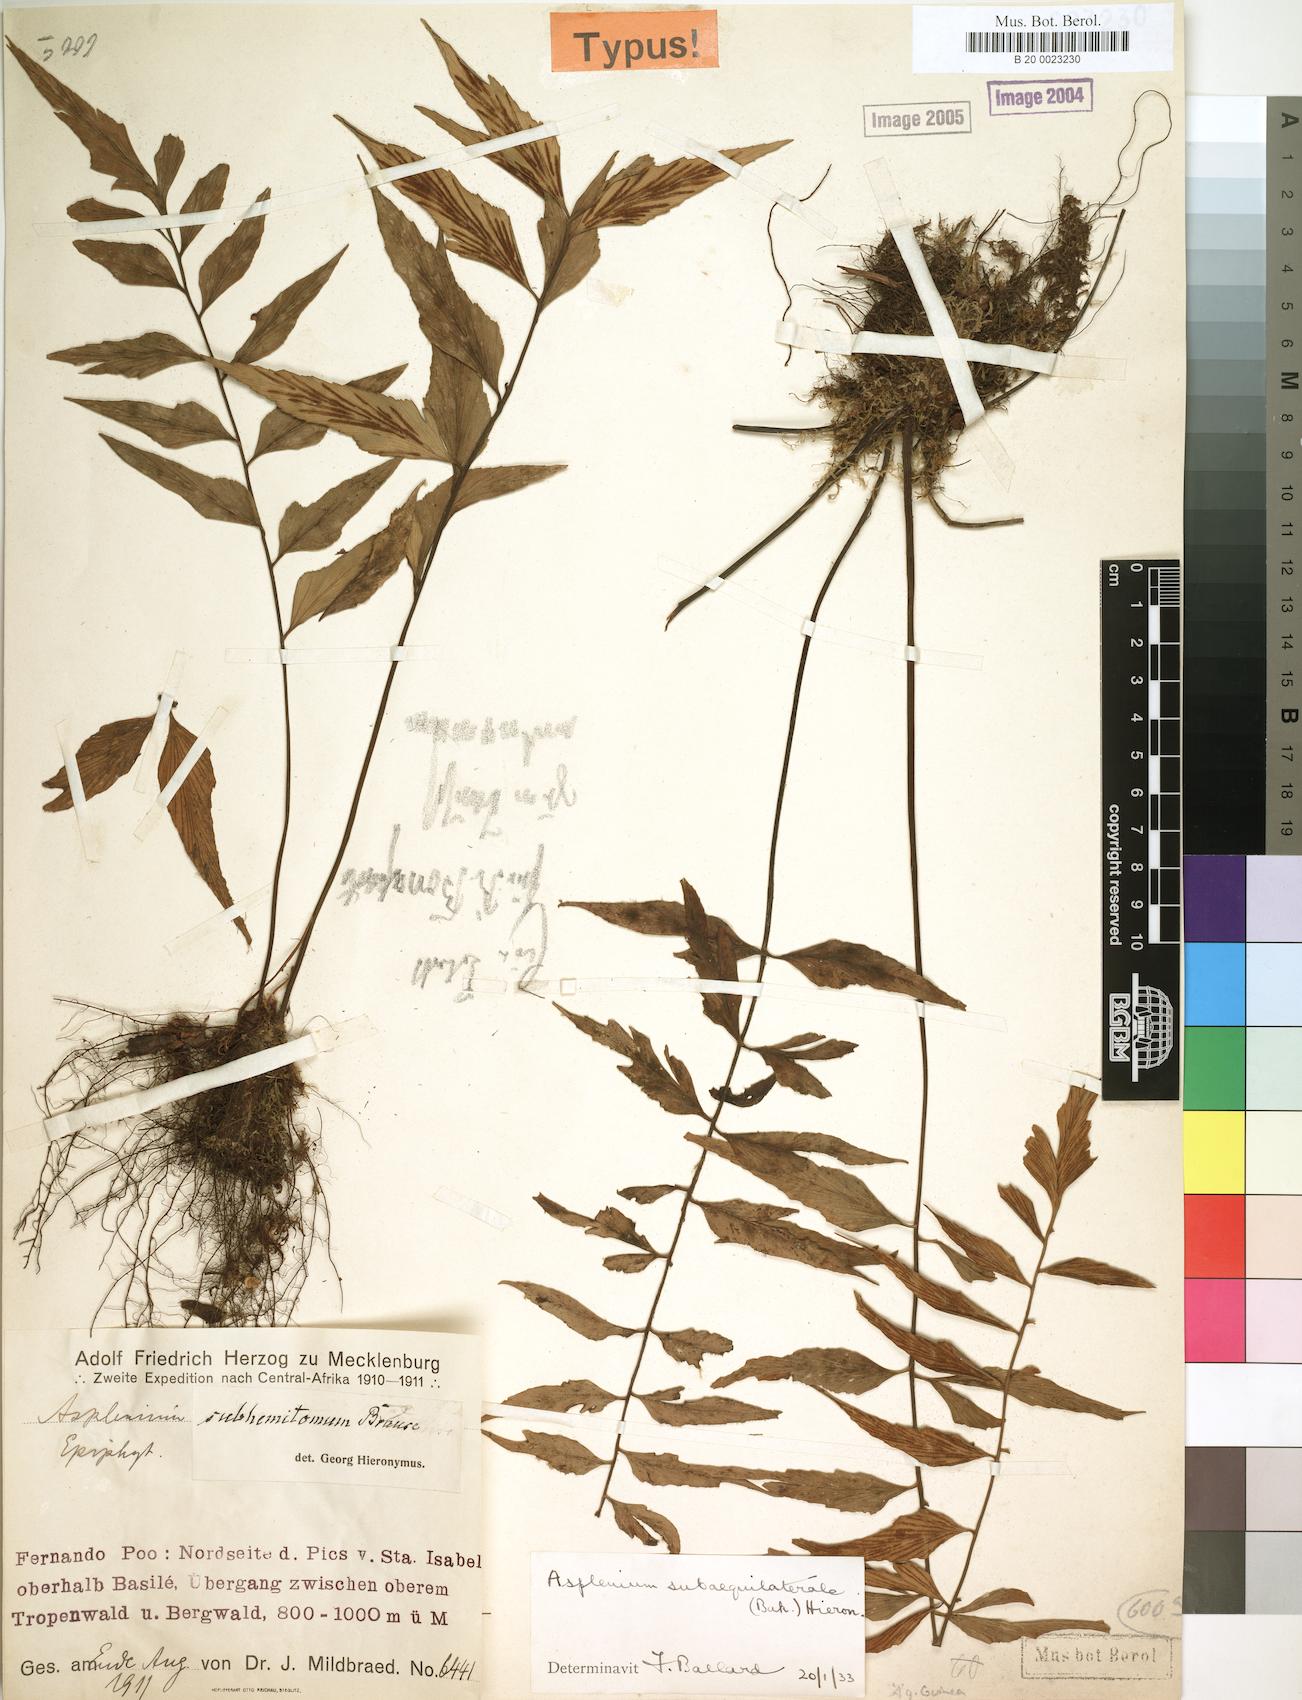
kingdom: Plantae
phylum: Tracheophyta
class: Polypodiopsida
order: Polypodiales
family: Aspleniaceae
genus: Asplenium
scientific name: Asplenium subaequilaterale
